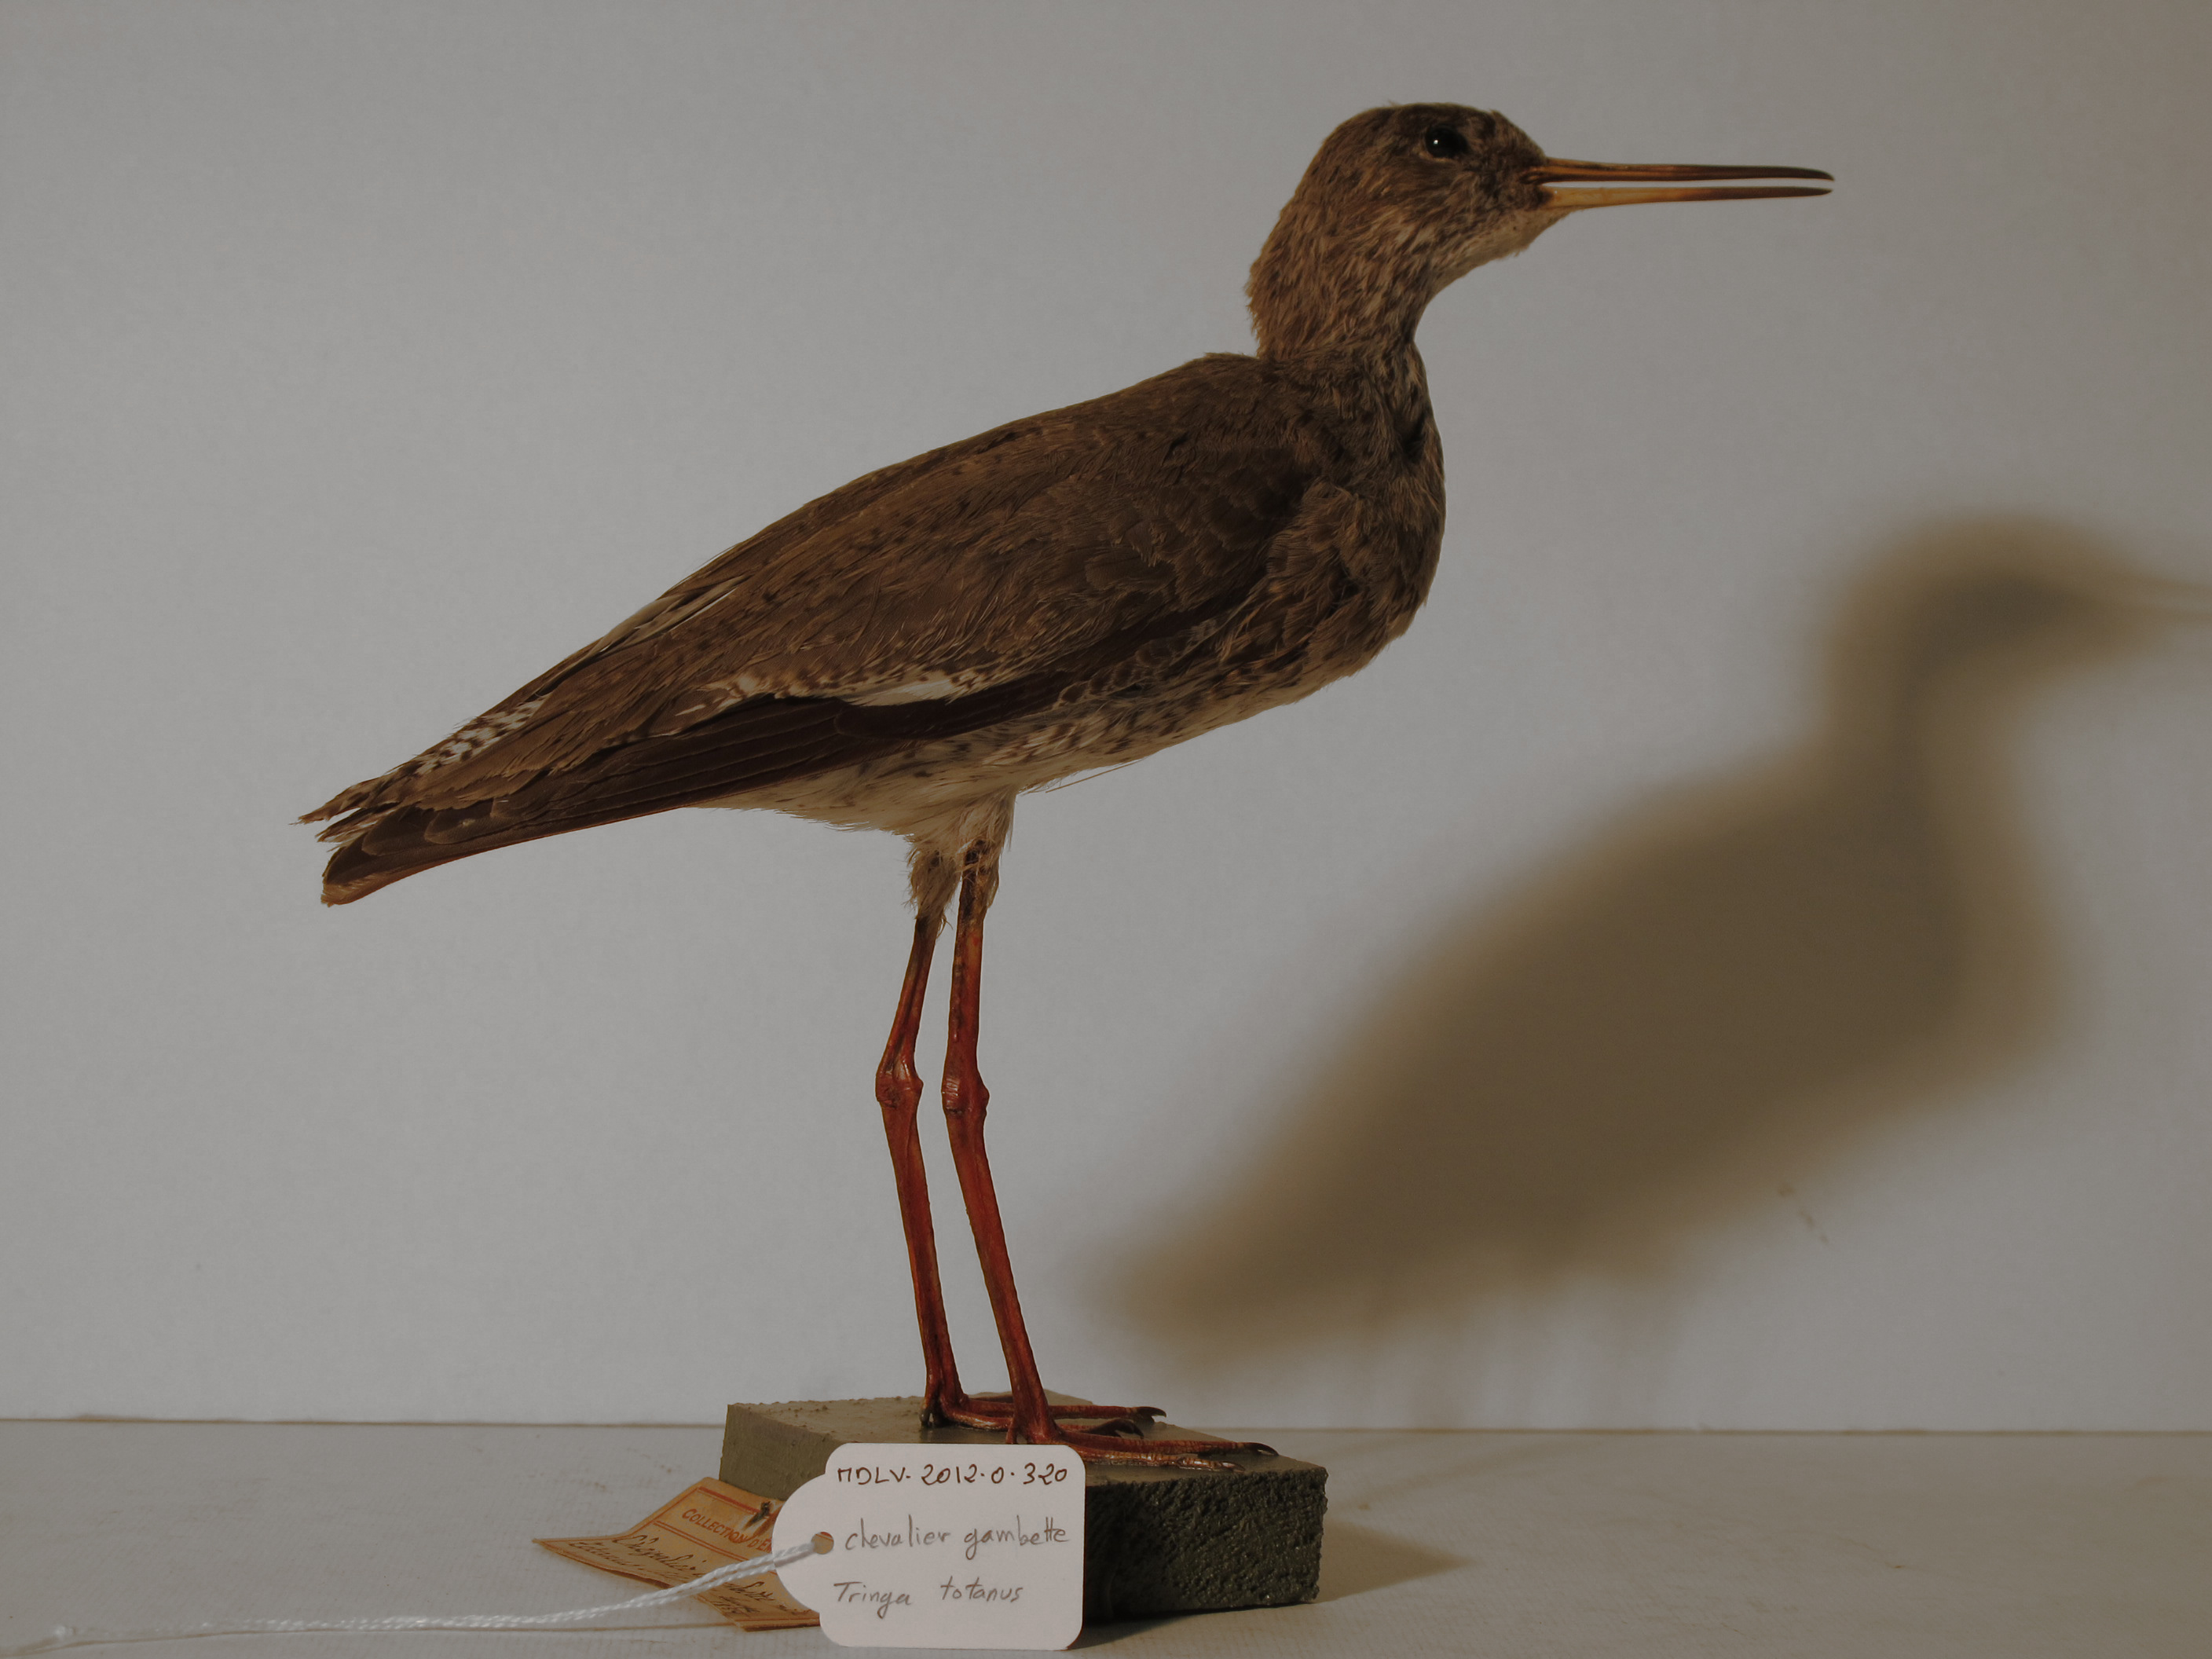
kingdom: Animalia
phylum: Chordata
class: Aves
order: Charadriiformes
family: Scolopacidae
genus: Tringa
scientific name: Tringa totanus
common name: Common Redshank
